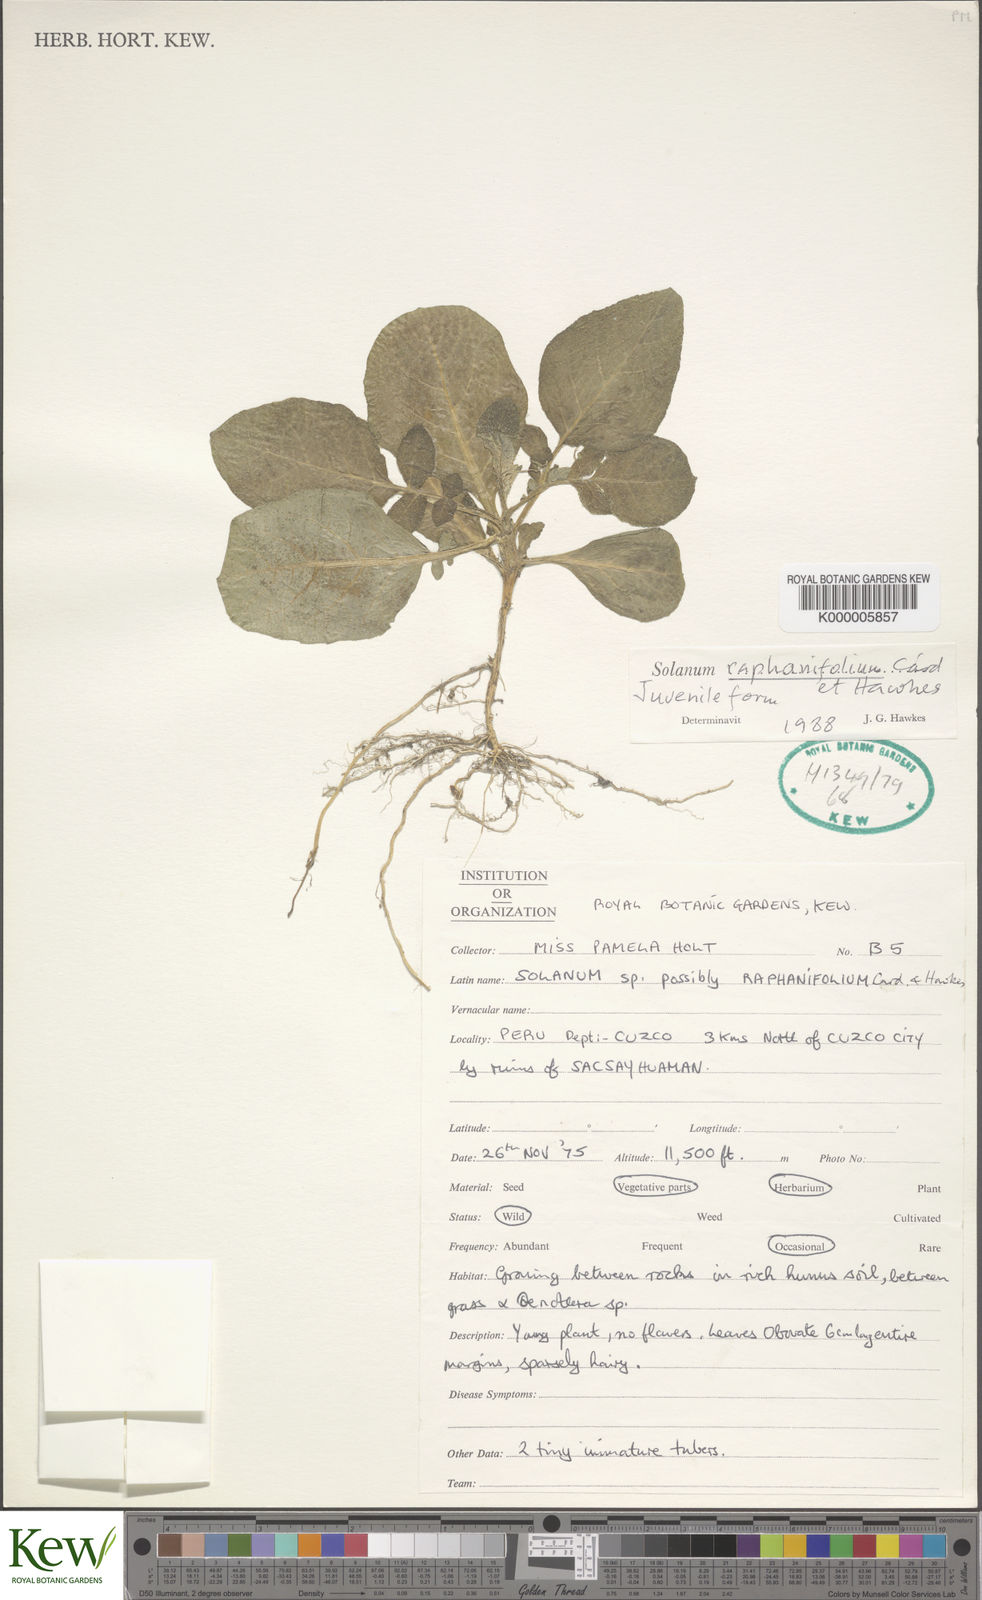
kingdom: Plantae
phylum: Tracheophyta
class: Magnoliopsida
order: Solanales
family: Solanaceae
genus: Solanum
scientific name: Solanum raphanifolium
